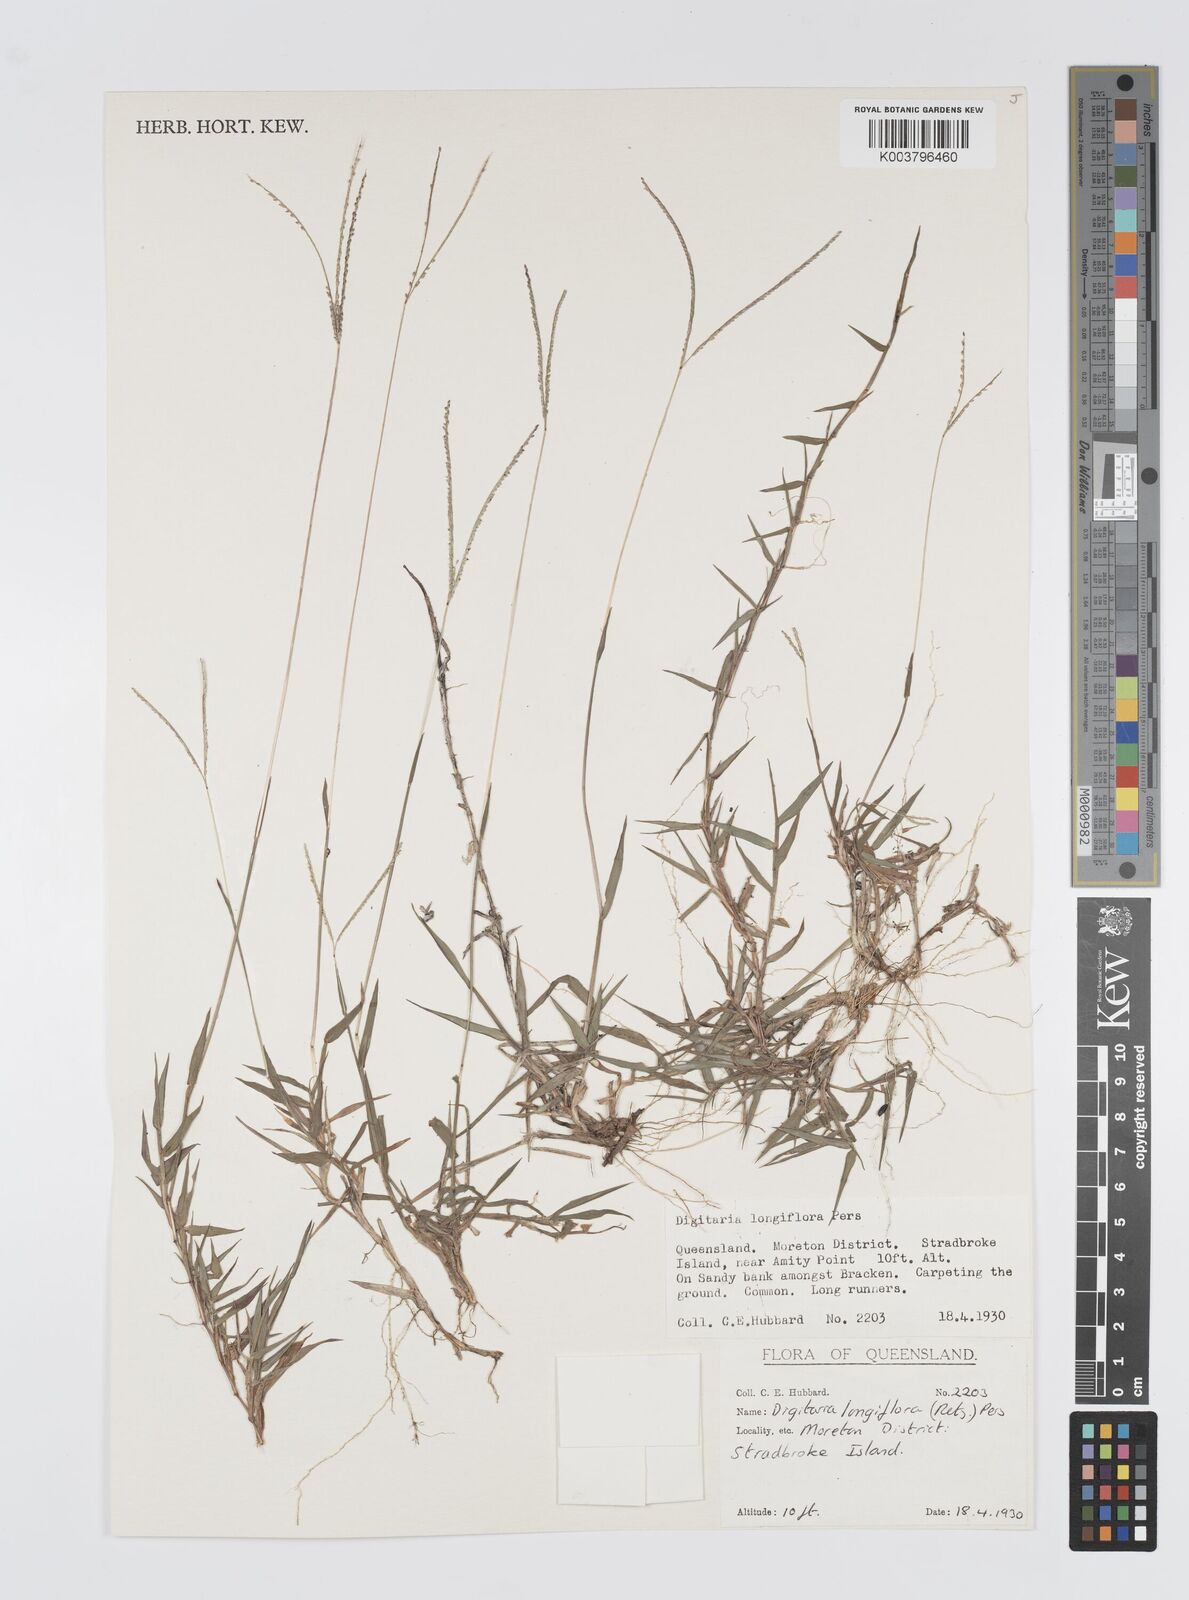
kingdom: Plantae
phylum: Tracheophyta
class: Liliopsida
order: Poales
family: Poaceae
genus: Digitaria
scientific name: Digitaria longiflora
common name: Wire crabgrass
